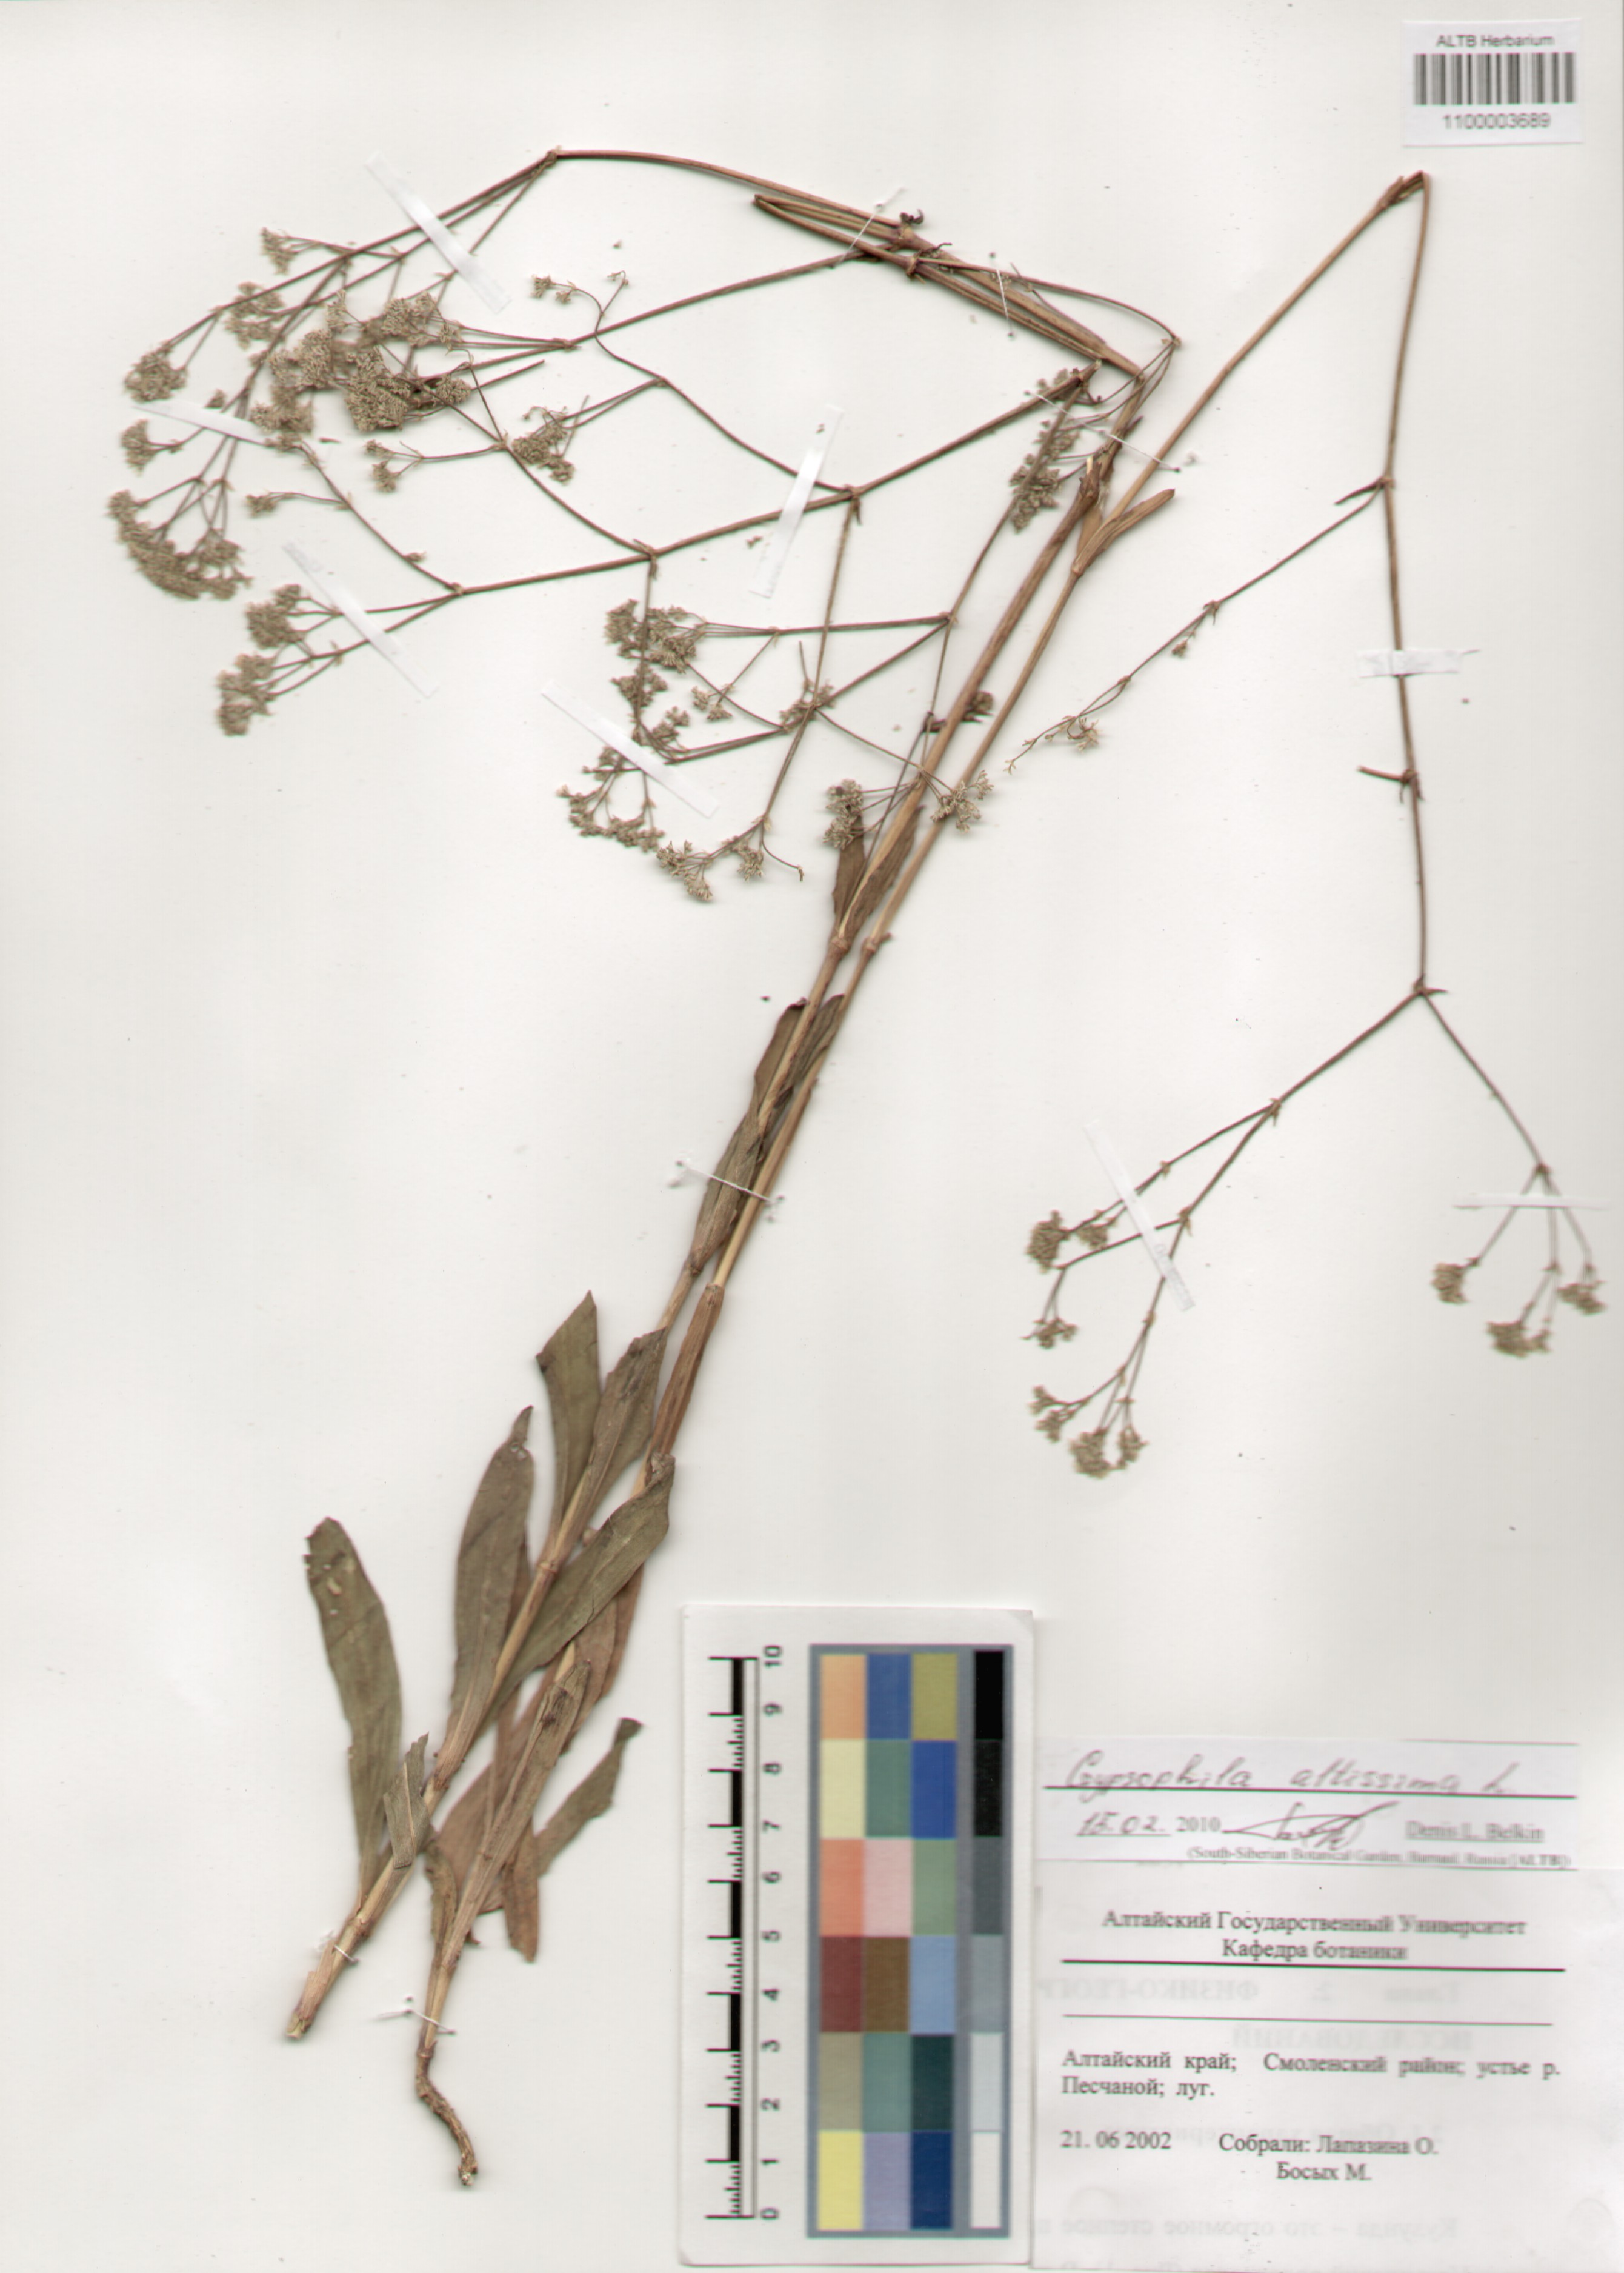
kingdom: Plantae
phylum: Tracheophyta
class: Magnoliopsida
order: Caryophyllales
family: Caryophyllaceae
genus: Gypsophila
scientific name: Gypsophila altissima
